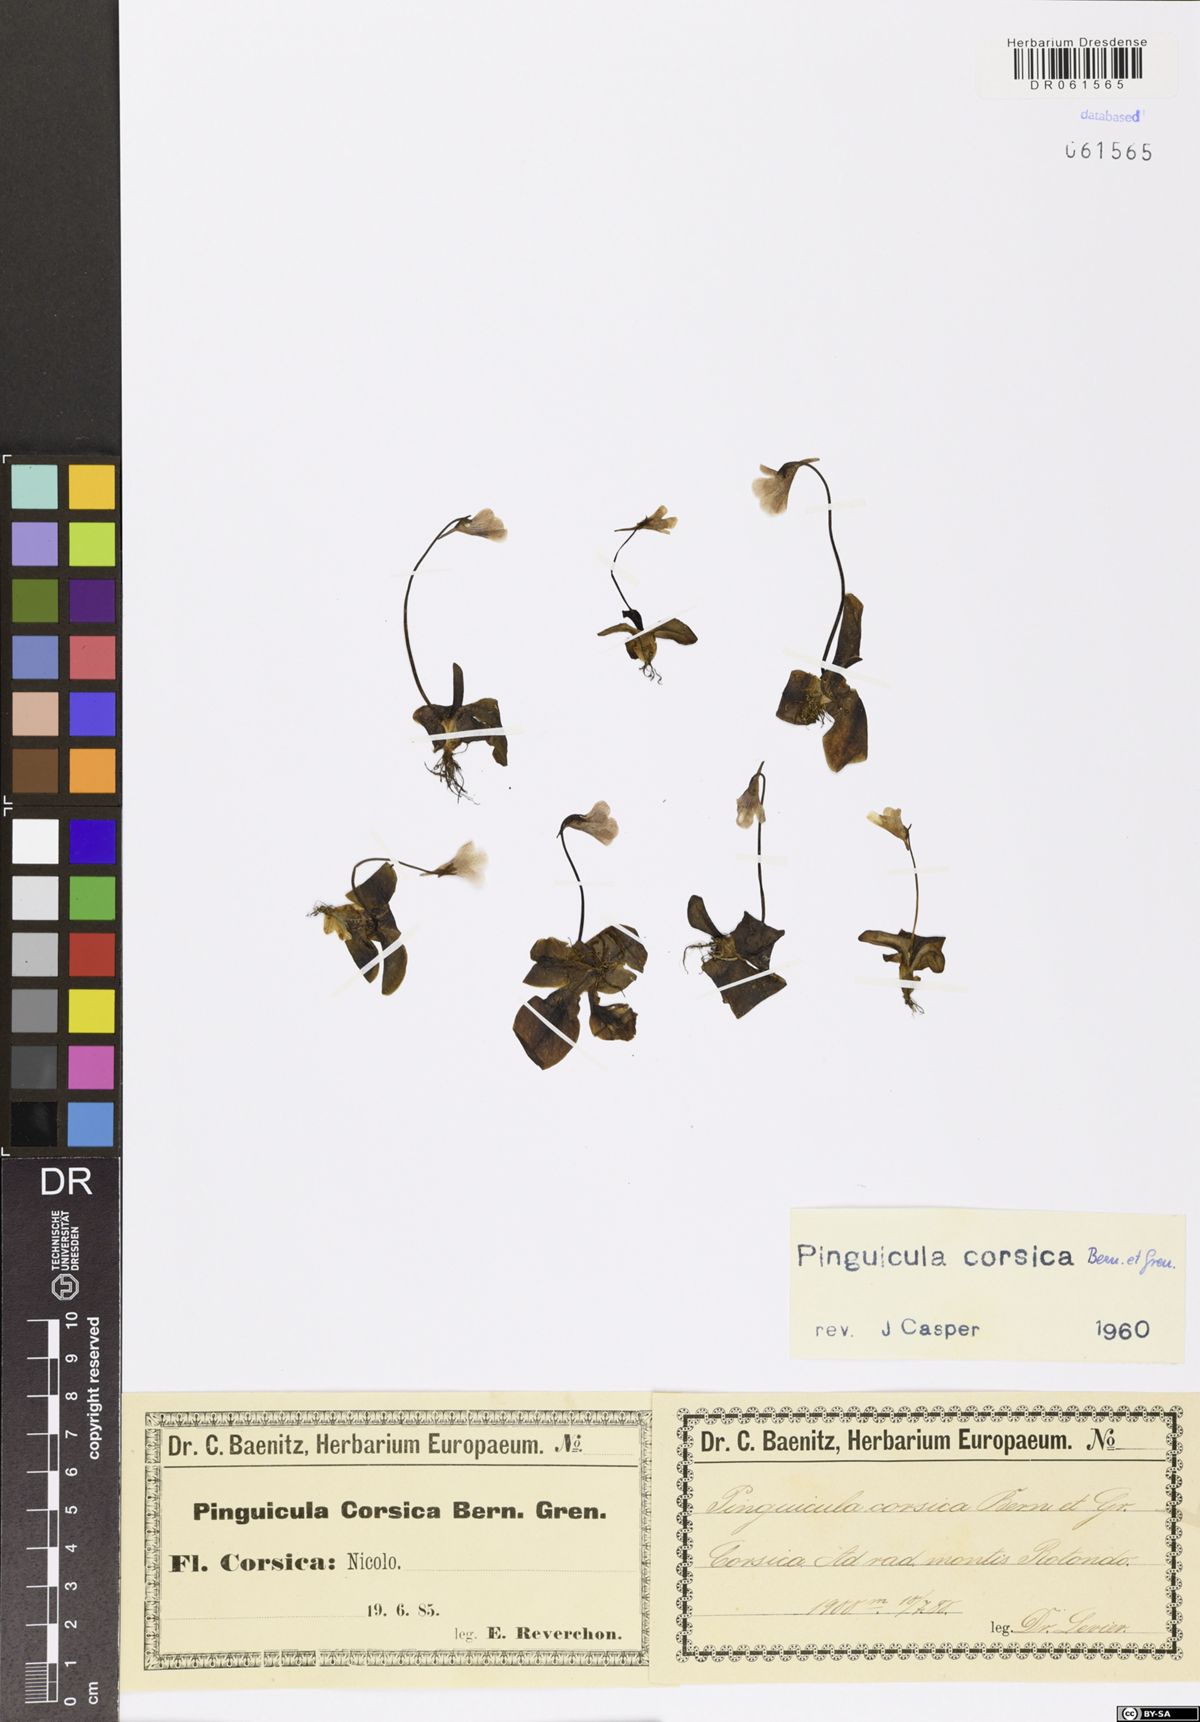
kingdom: Plantae
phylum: Tracheophyta
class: Magnoliopsida
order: Lamiales
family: Lentibulariaceae
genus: Pinguicula
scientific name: Pinguicula corsica
